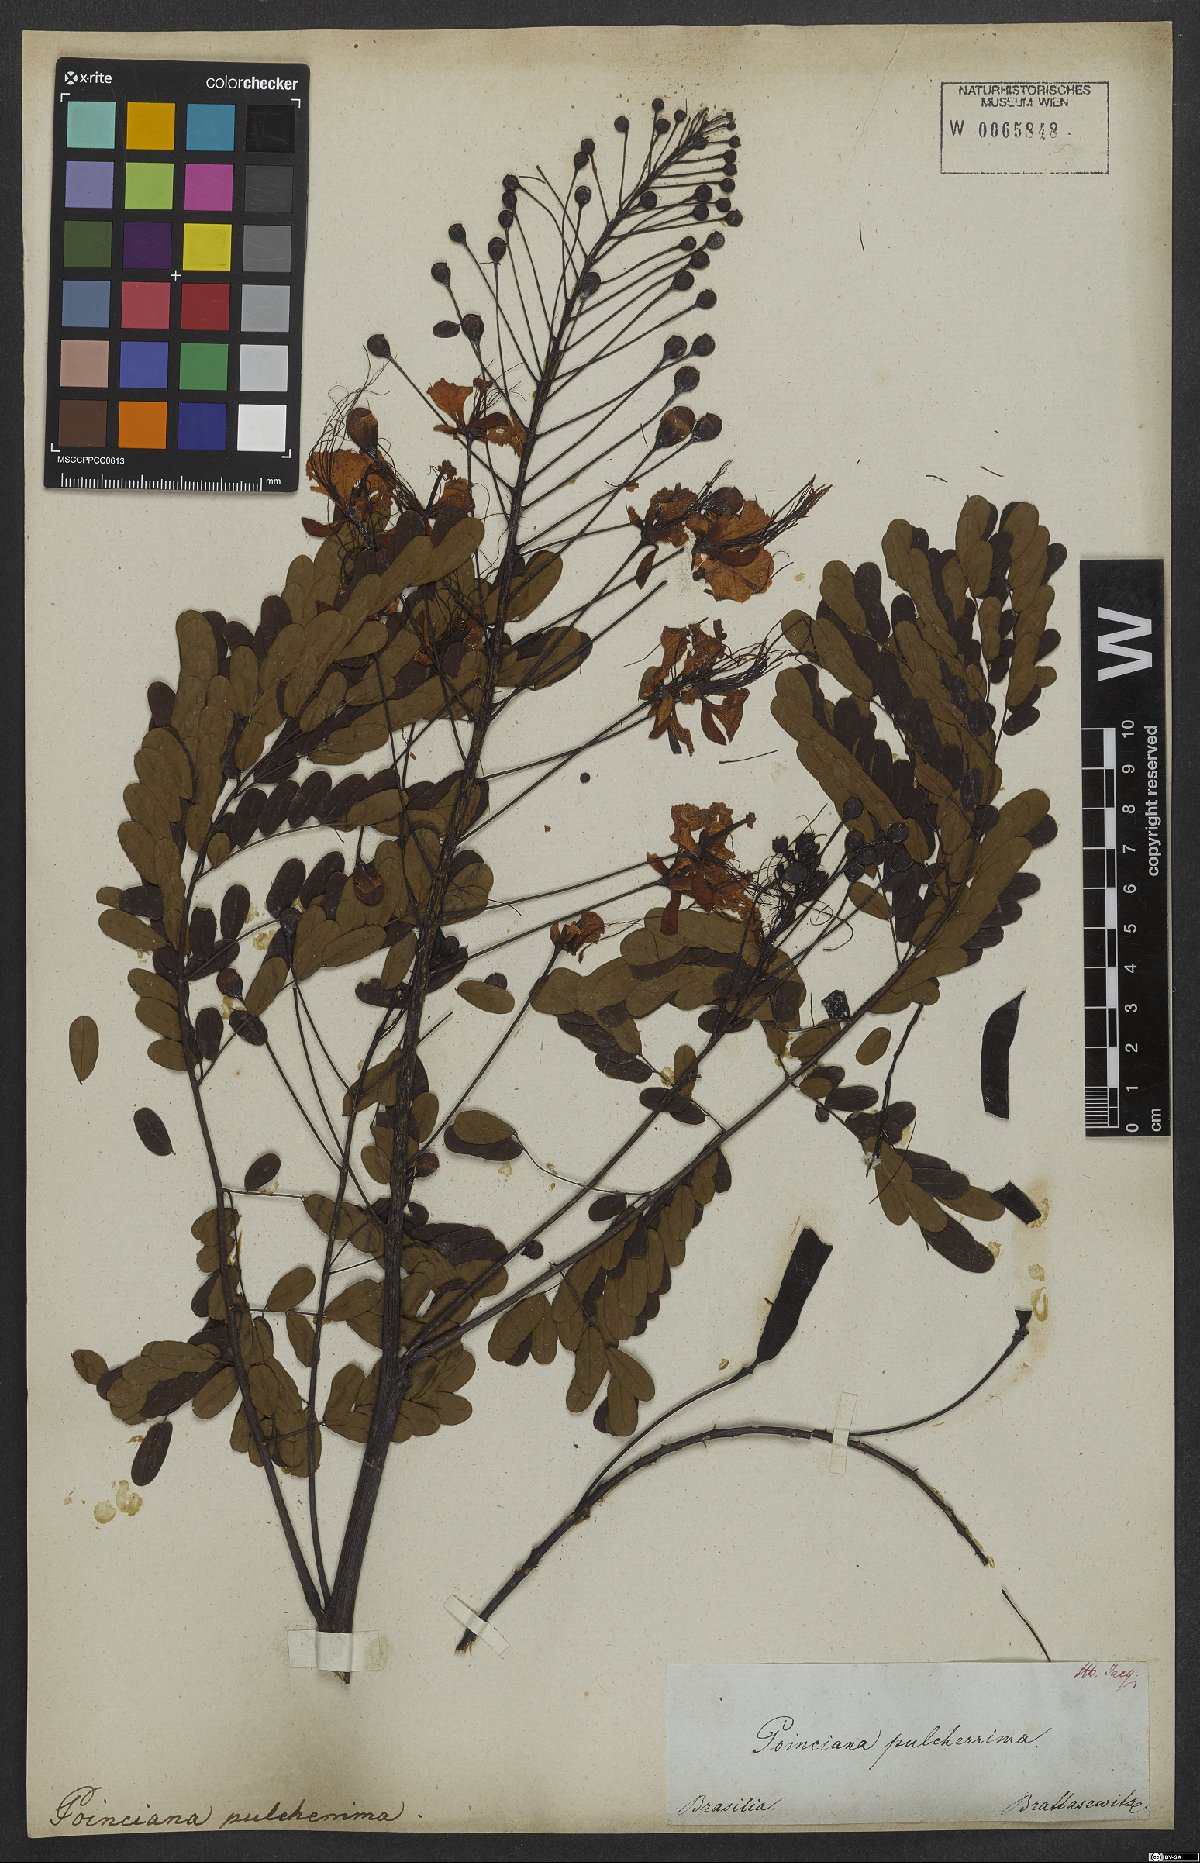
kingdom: Plantae
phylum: Tracheophyta
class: Magnoliopsida
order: Fabales
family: Fabaceae
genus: Caesalpinia
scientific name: Caesalpinia pulcherrima
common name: Pride-of-barbados
